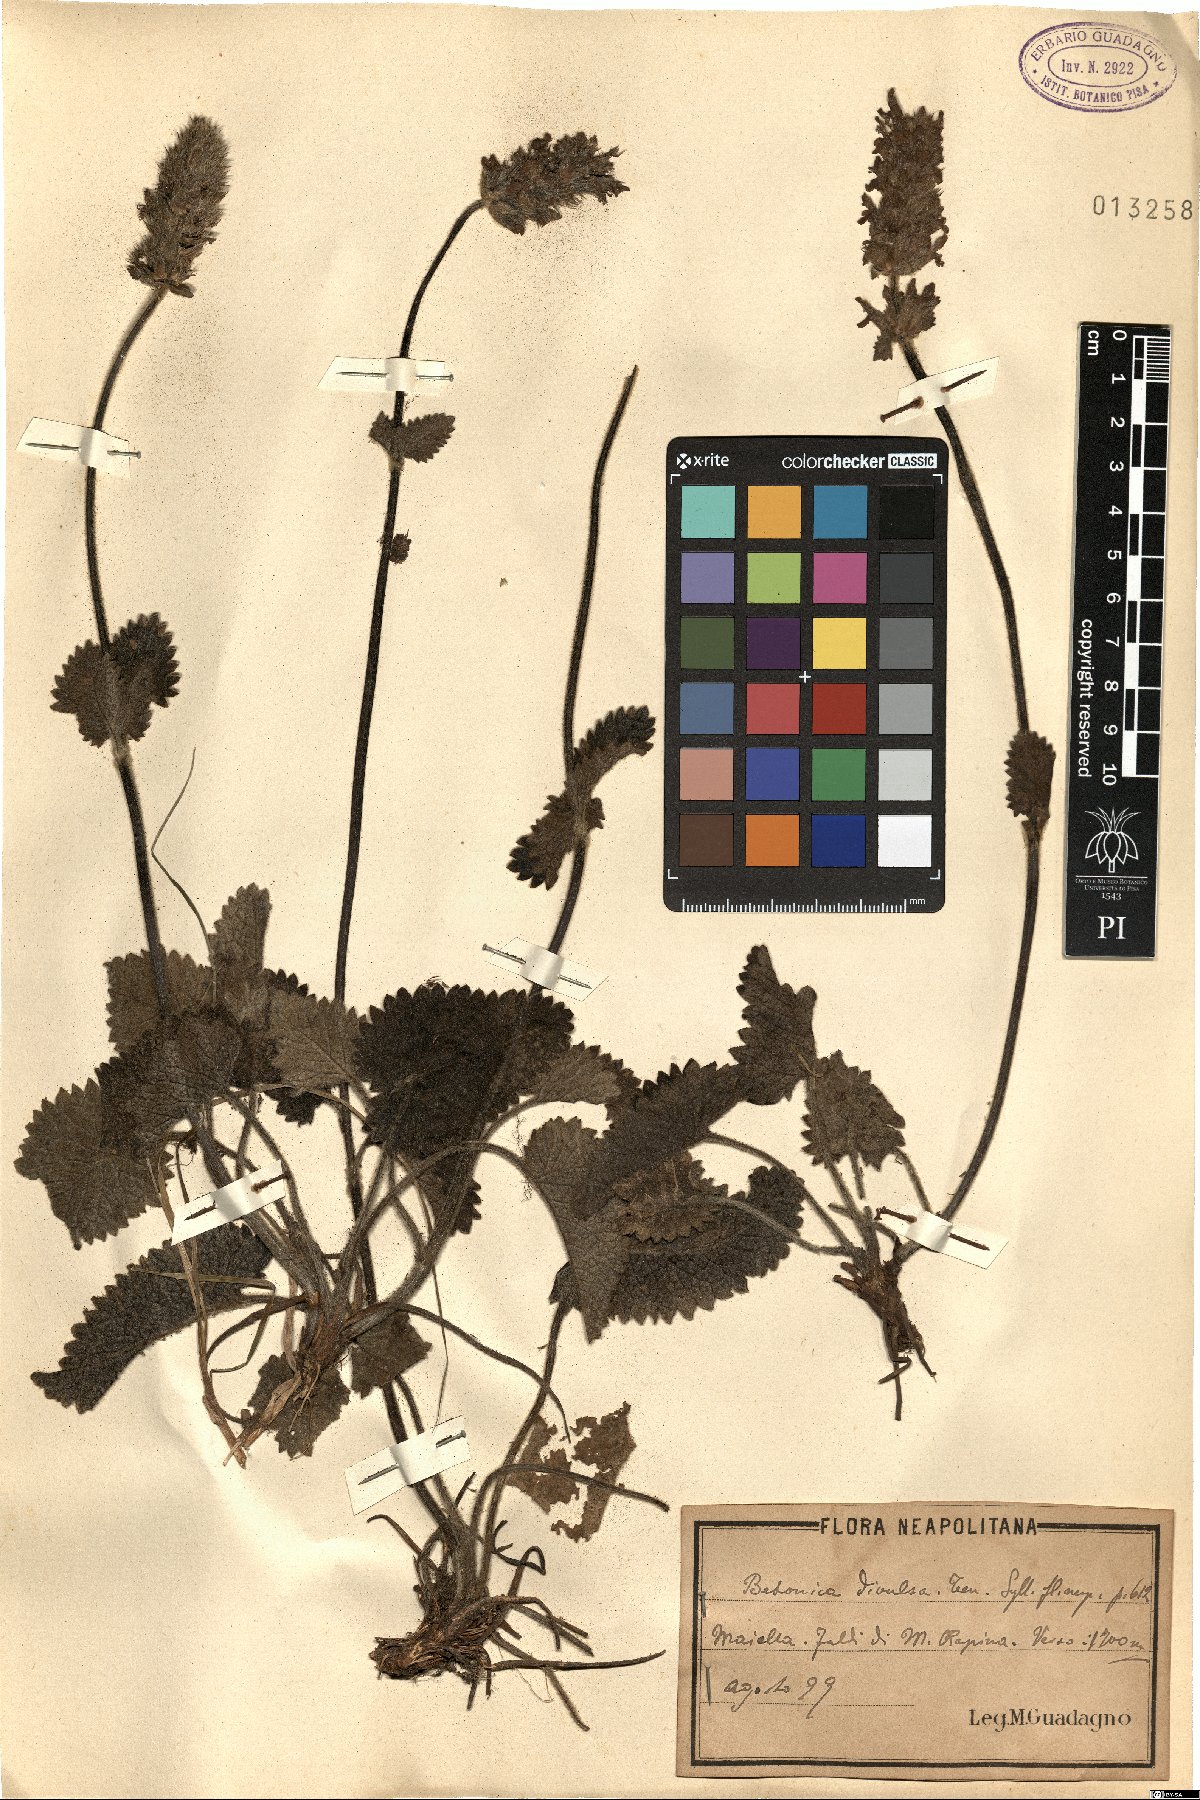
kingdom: Plantae
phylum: Tracheophyta
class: Magnoliopsida
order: Lamiales
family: Lamiaceae
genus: Betonica
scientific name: Betonica alopecuros
